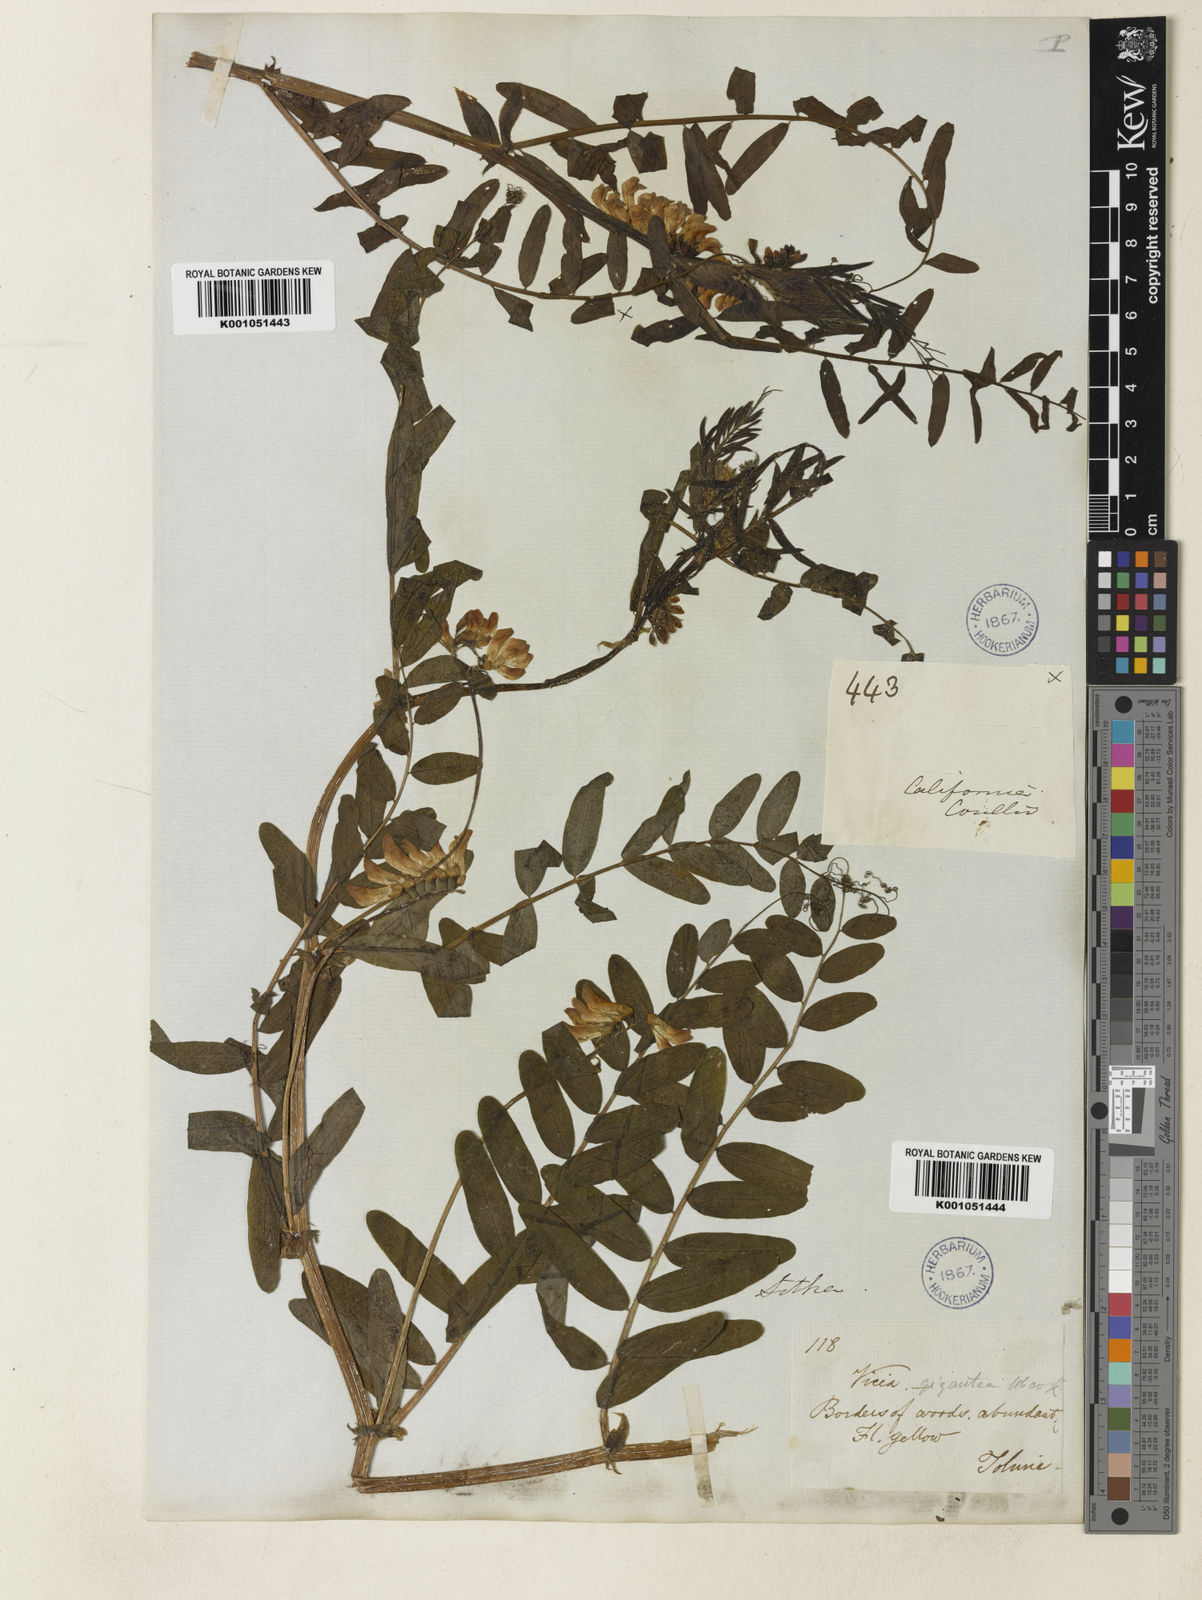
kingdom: Plantae
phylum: Tracheophyta
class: Magnoliopsida
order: Fabales
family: Fabaceae
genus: Vicia
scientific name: Vicia nigricans
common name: Black vetch
